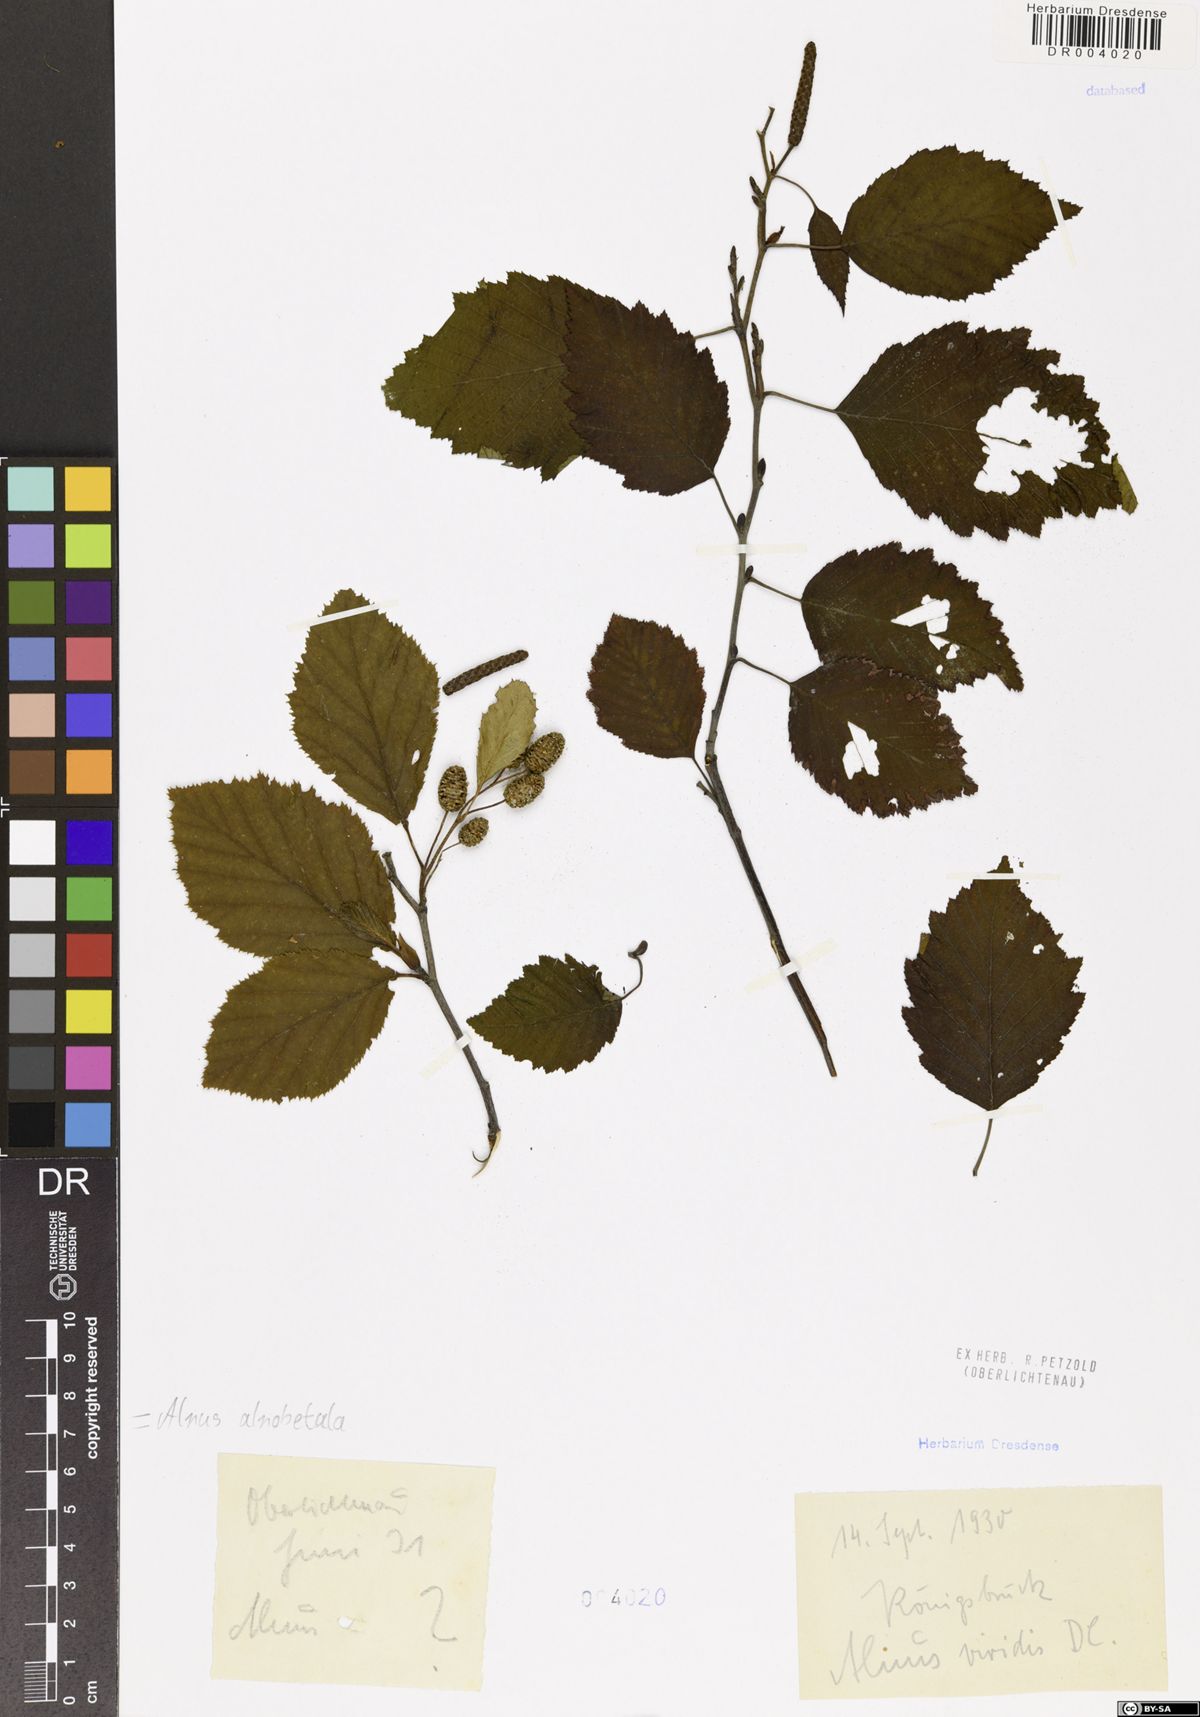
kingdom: Plantae
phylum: Tracheophyta
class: Magnoliopsida
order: Fagales
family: Betulaceae
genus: Alnus
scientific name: Alnus alnobetula
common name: Green alder
